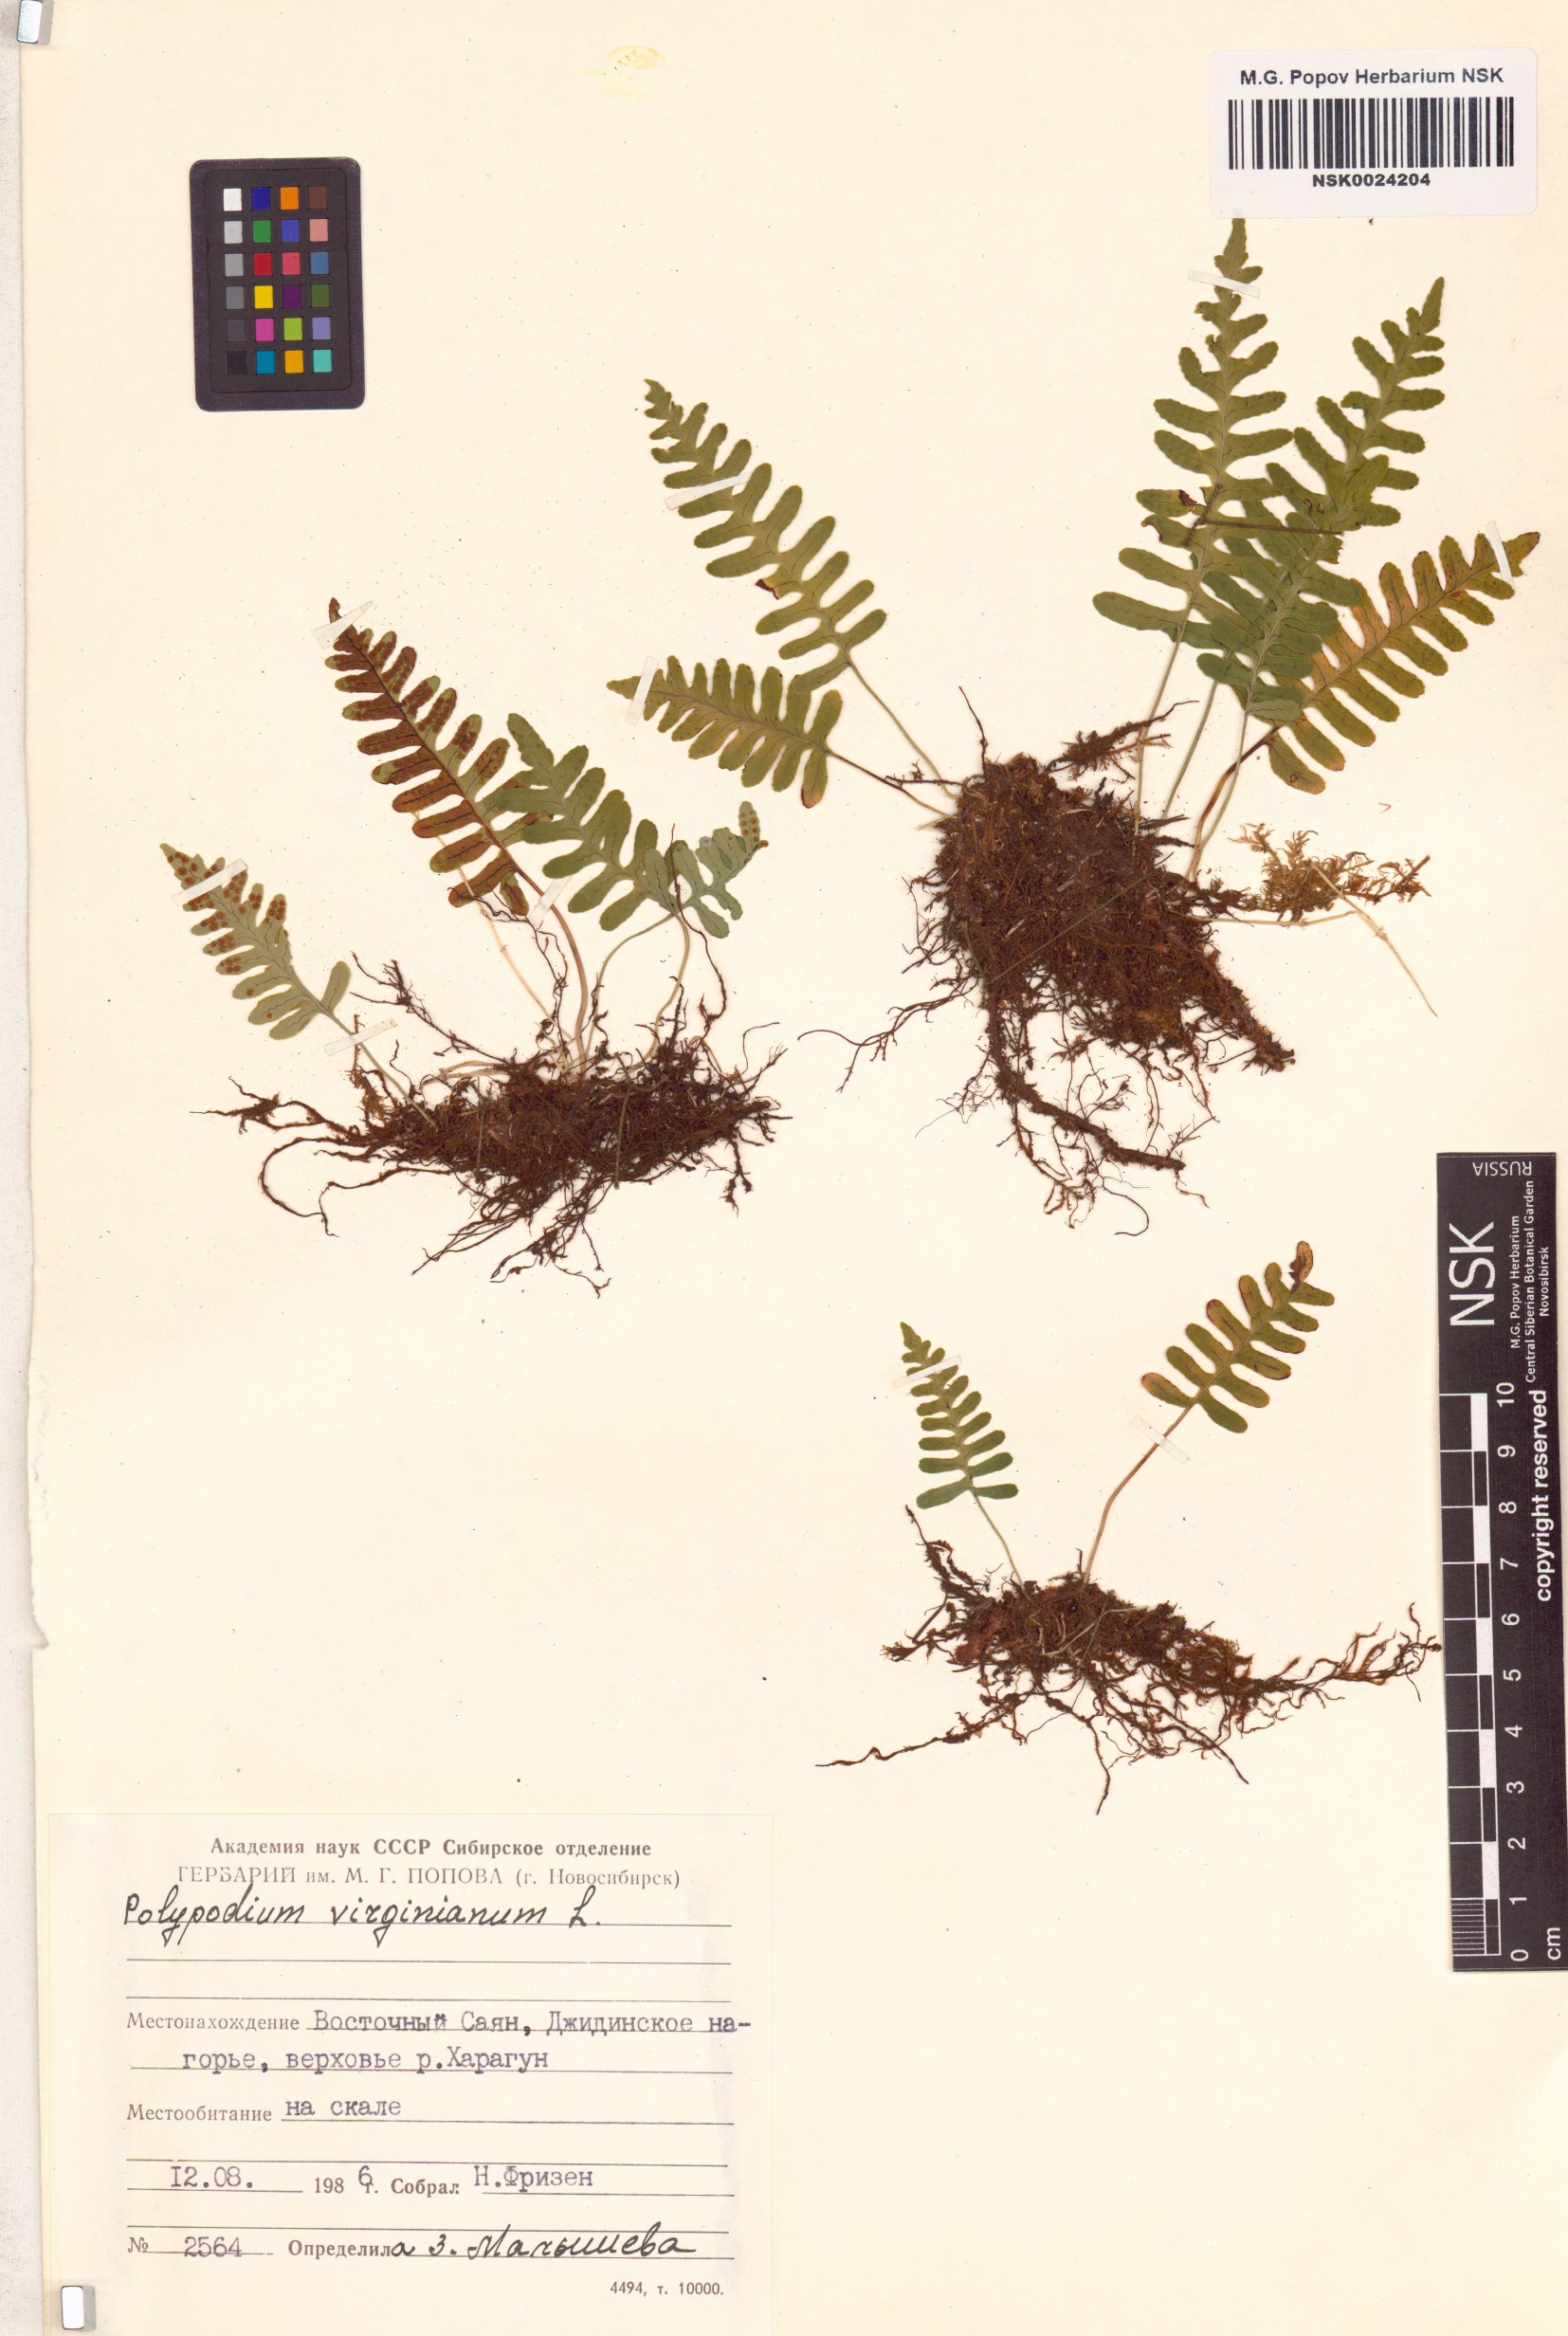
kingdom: Plantae
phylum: Tracheophyta
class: Polypodiopsida
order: Polypodiales
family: Polypodiaceae
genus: Polypodium
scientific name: Polypodium virginianum
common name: American wall fern
